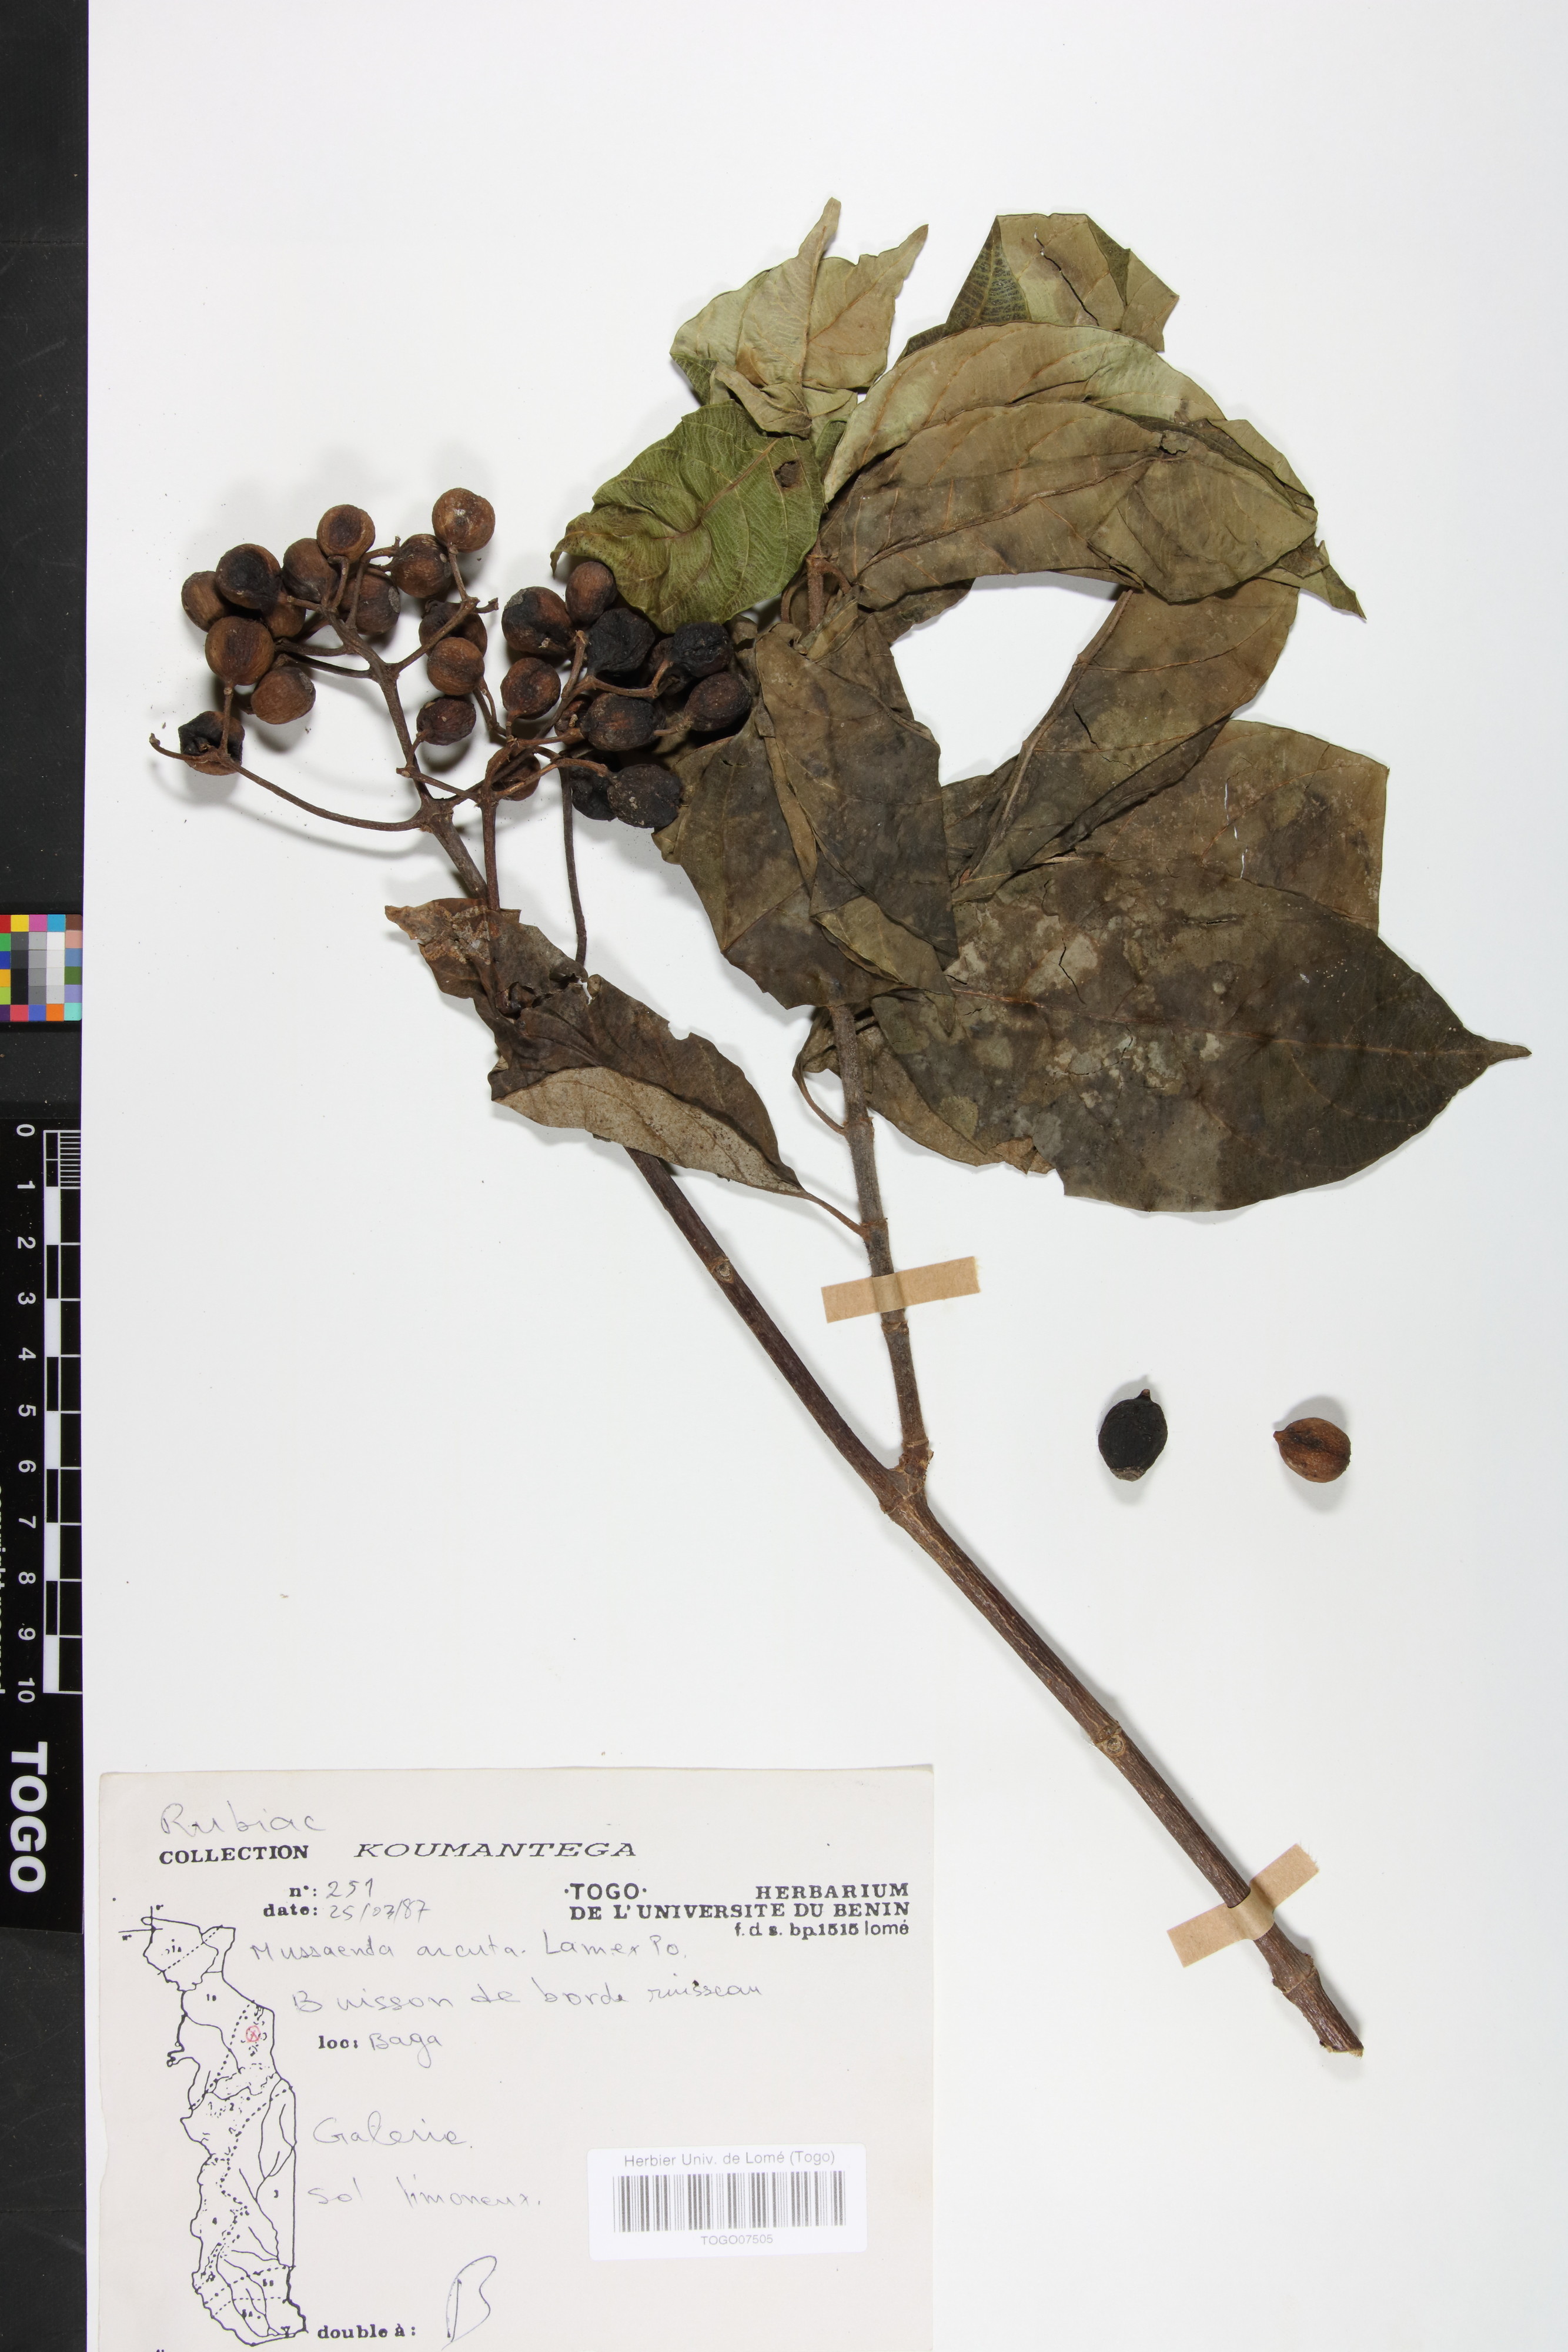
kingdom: Plantae
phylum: Tracheophyta
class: Magnoliopsida
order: Gentianales
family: Rubiaceae
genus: Mussaenda
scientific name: Mussaenda arcuata
